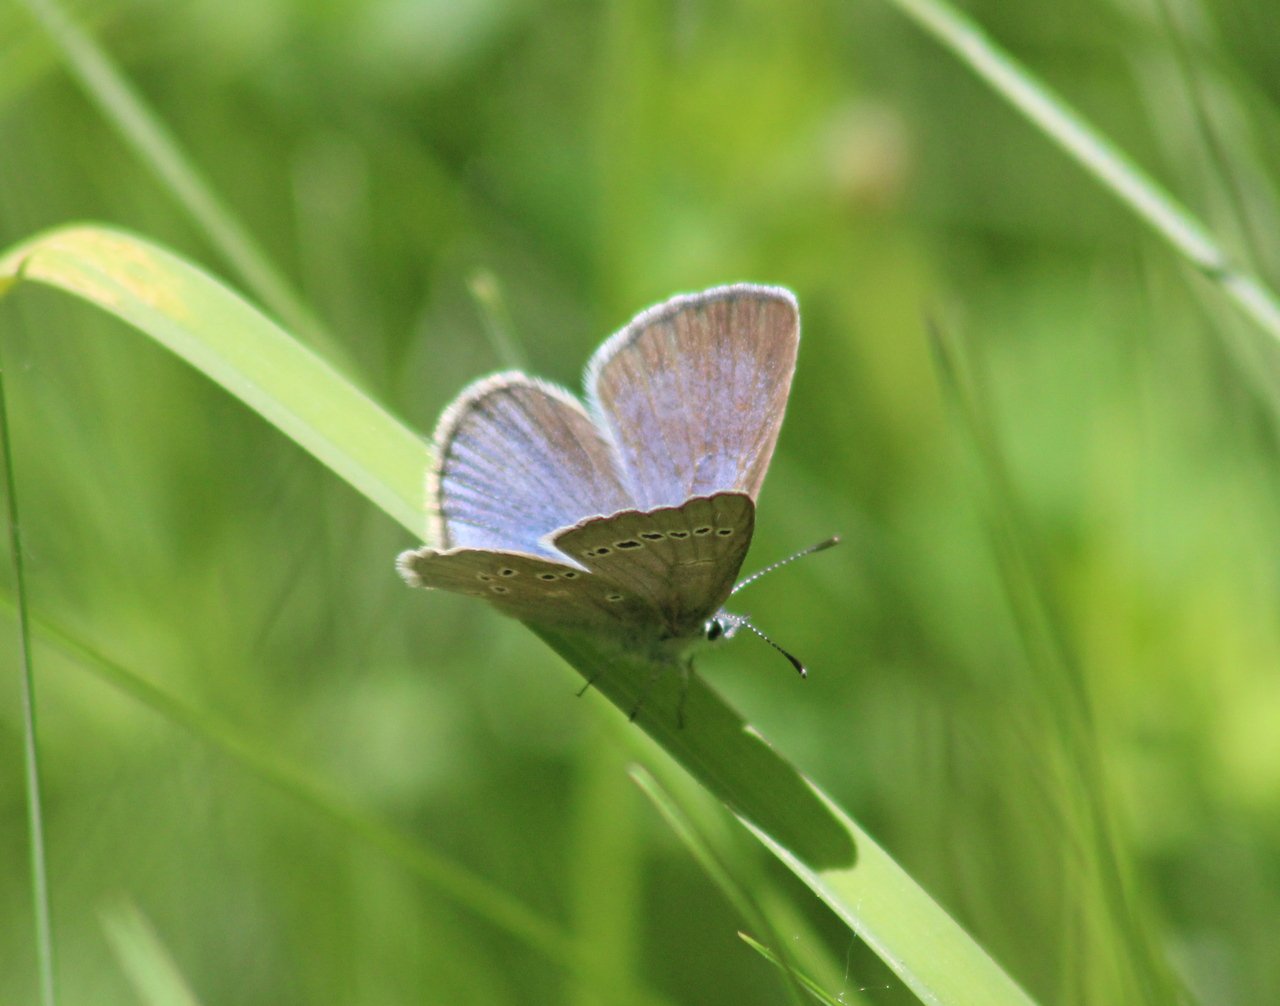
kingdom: Animalia
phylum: Arthropoda
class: Insecta
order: Lepidoptera
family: Lycaenidae
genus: Glaucopsyche
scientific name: Glaucopsyche lygdamus
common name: Silvery Blue
